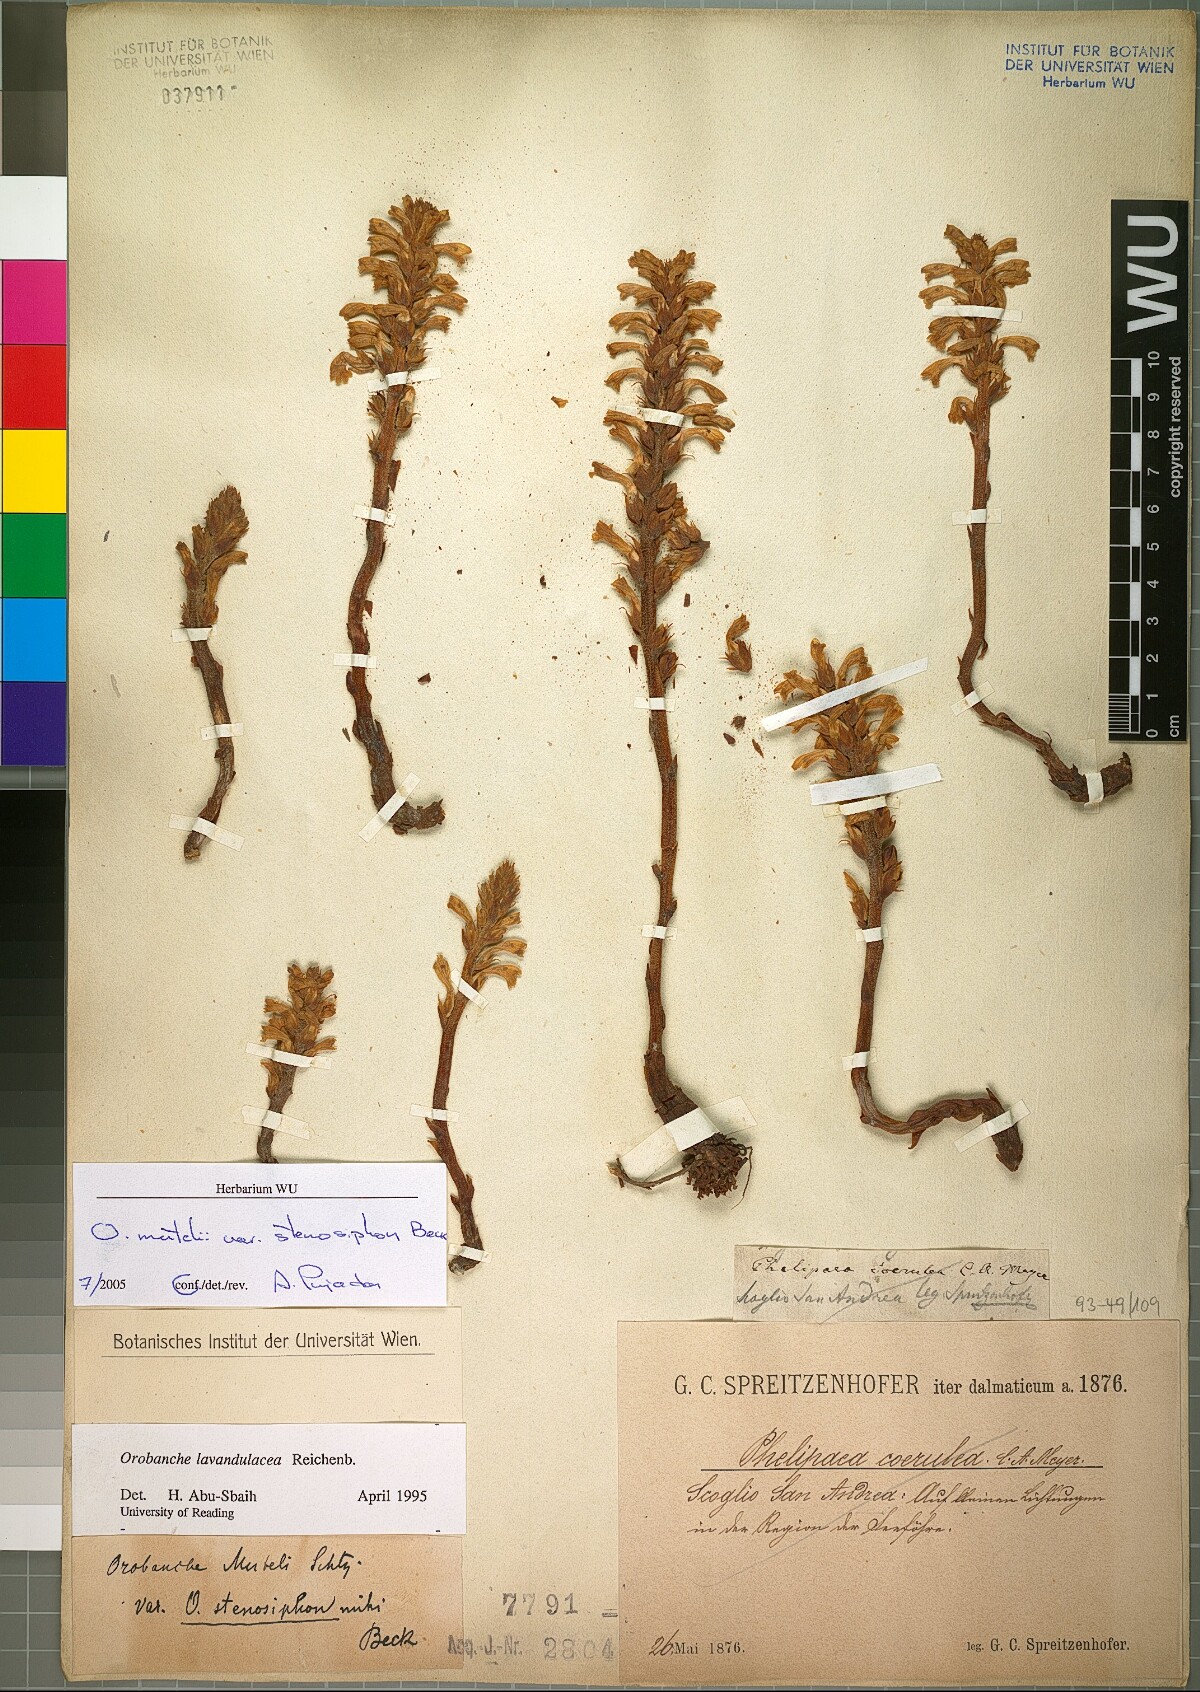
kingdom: Plantae
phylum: Tracheophyta
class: Magnoliopsida
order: Lamiales
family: Orobanchaceae
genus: Phelipanche
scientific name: Phelipanche pseudorosmarina
